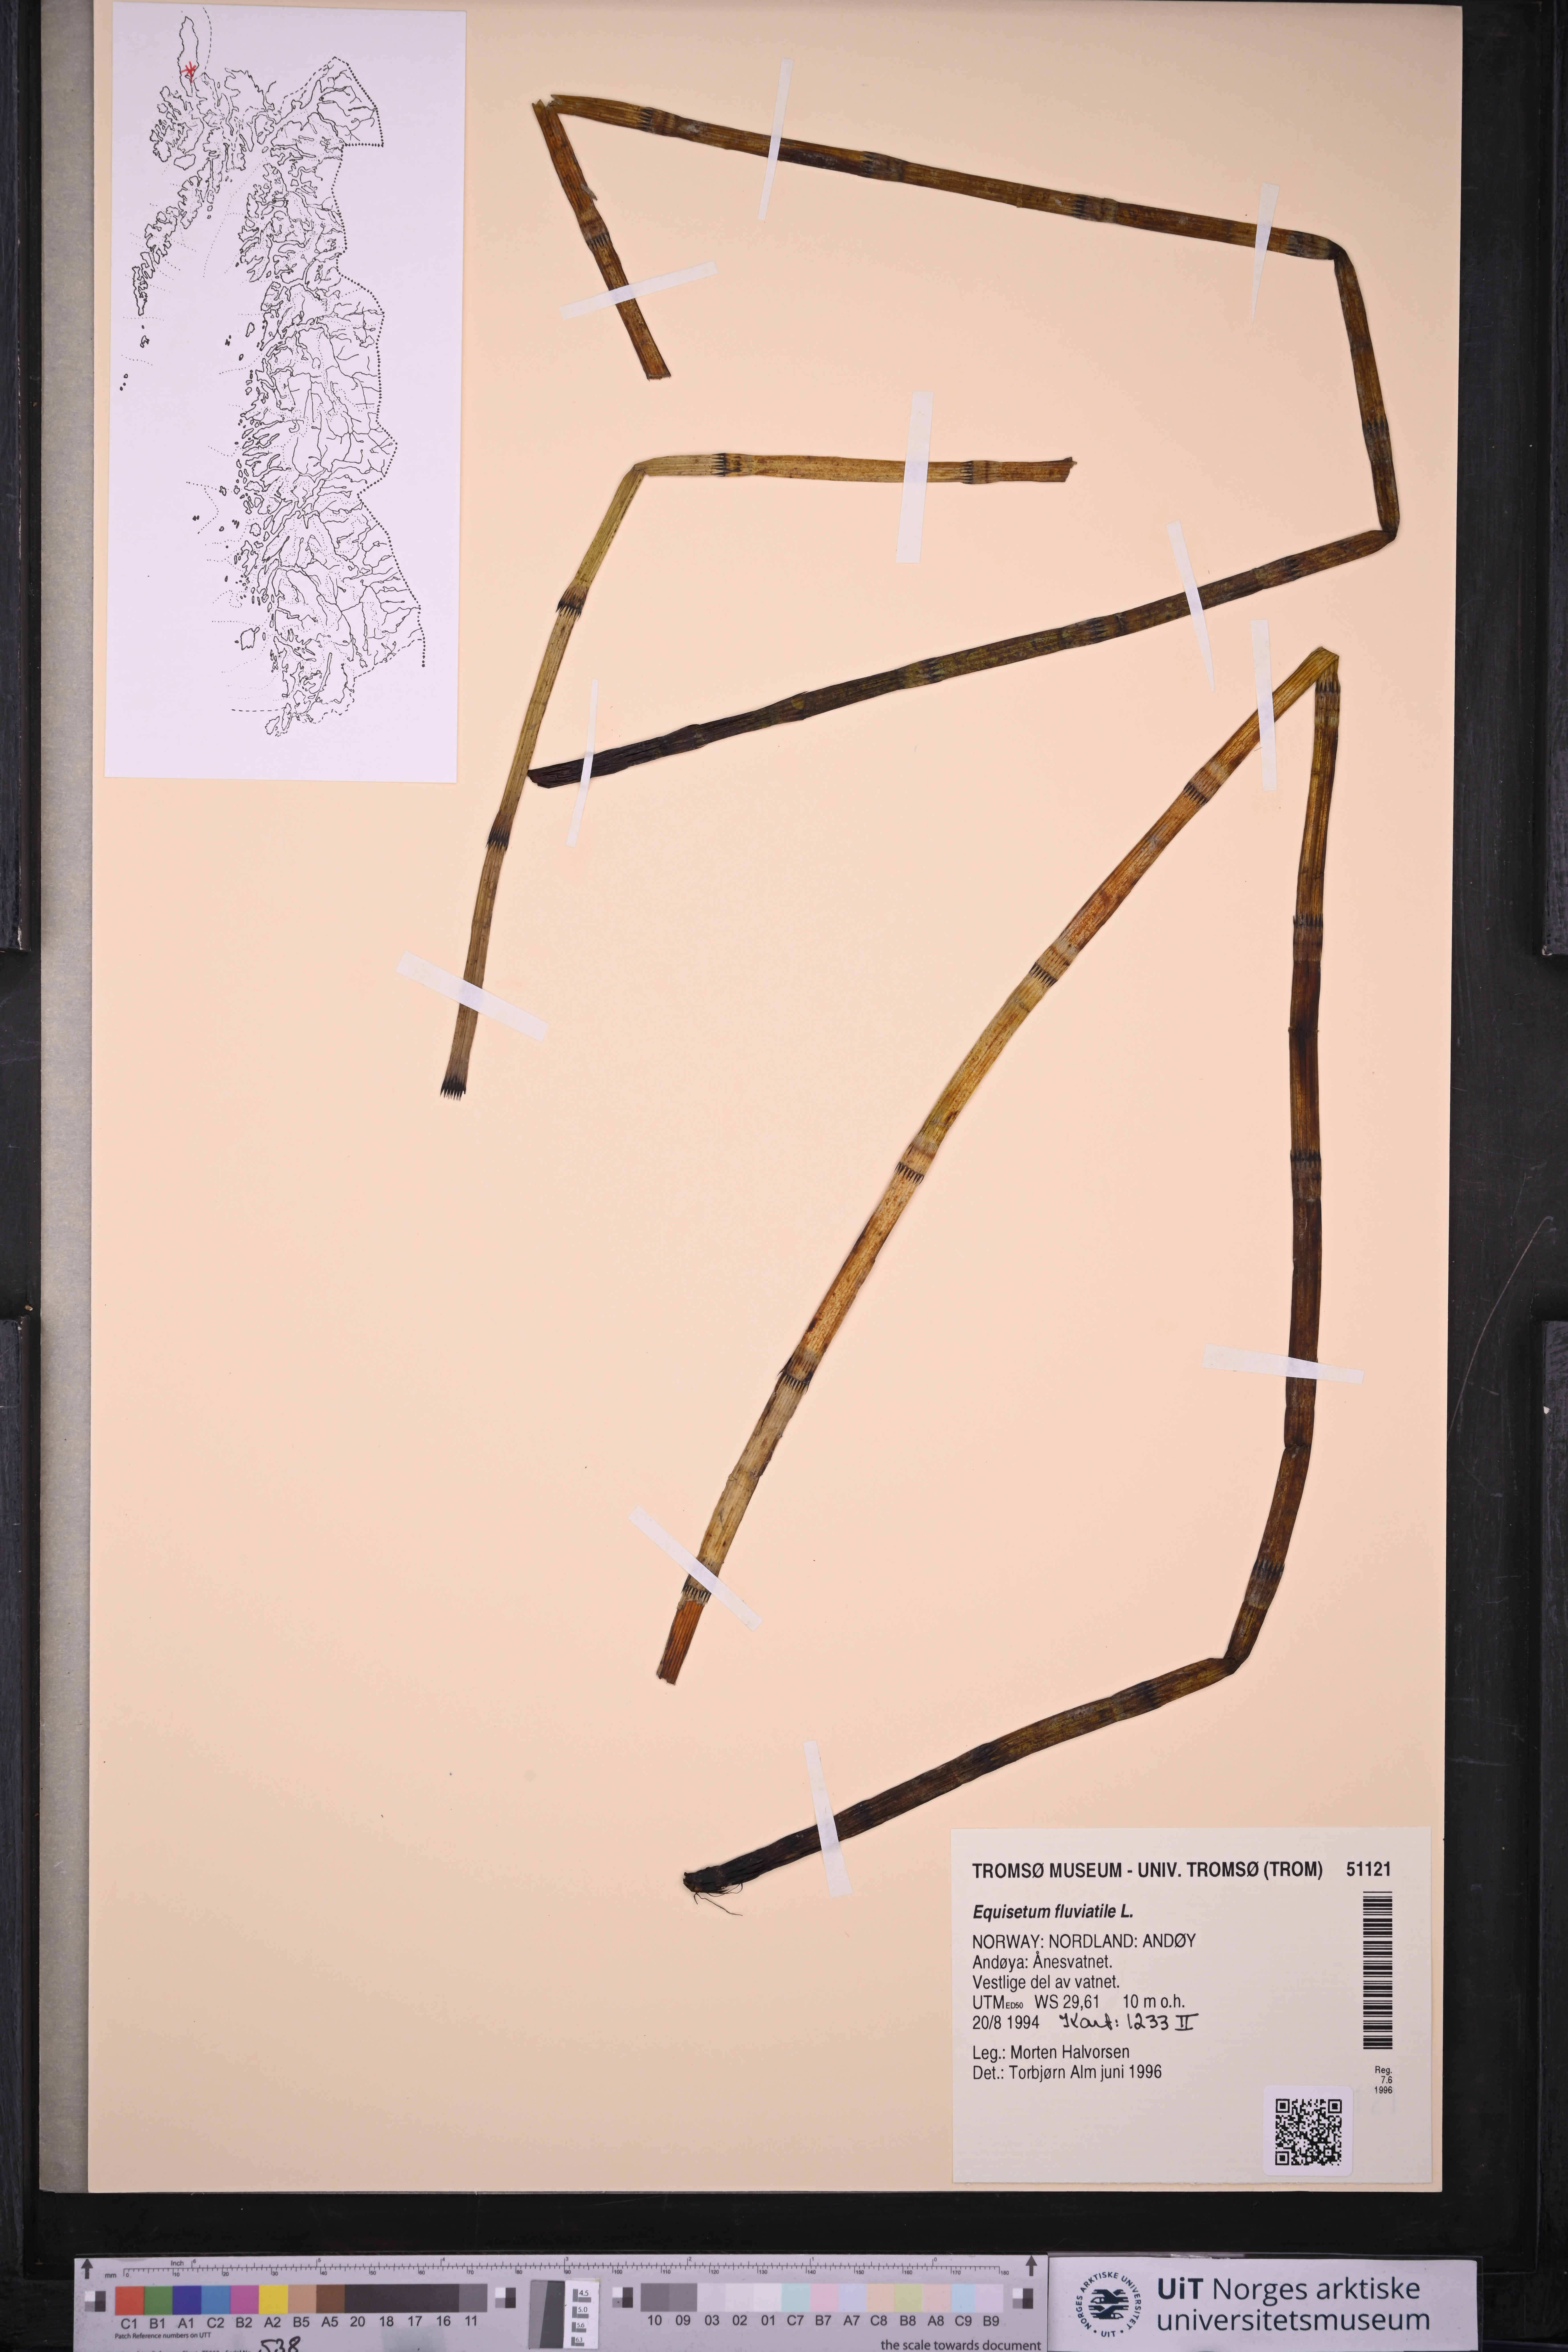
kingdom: Plantae
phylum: Tracheophyta
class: Polypodiopsida
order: Equisetales
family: Equisetaceae
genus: Equisetum
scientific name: Equisetum fluviatile
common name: Water horsetail
